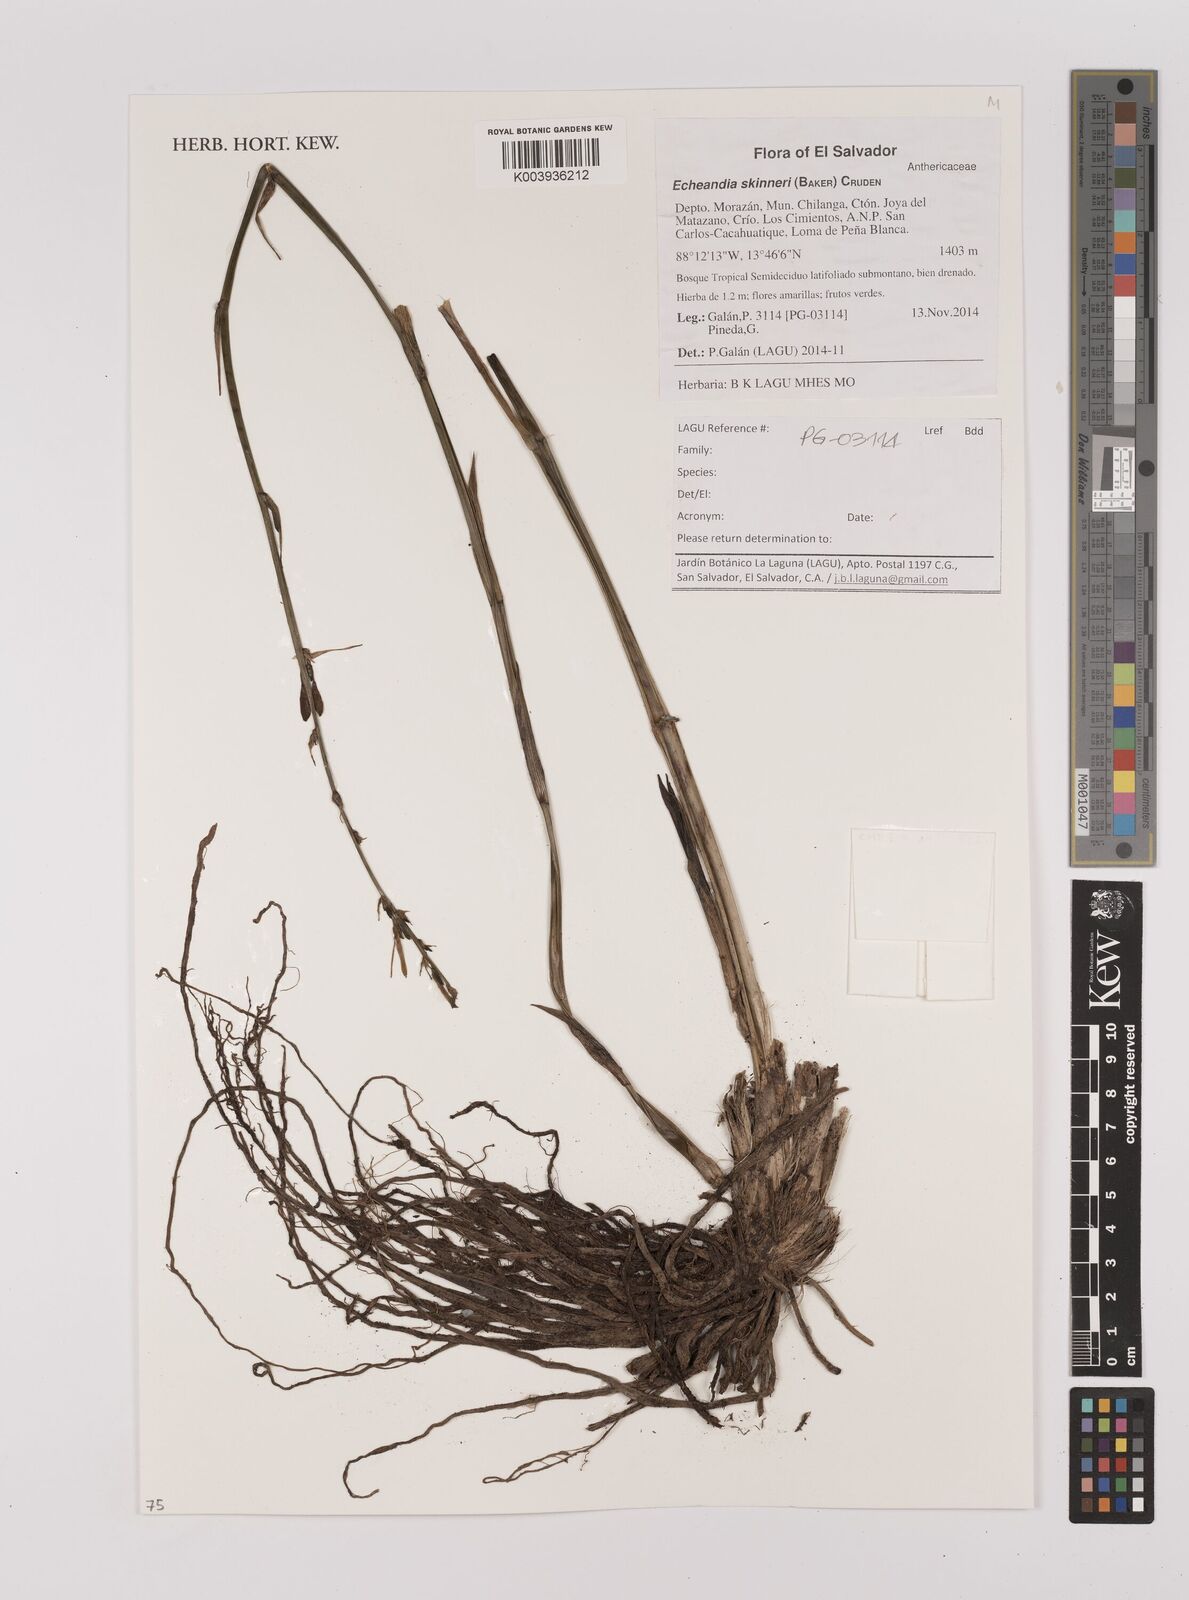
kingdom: Plantae
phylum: Tracheophyta
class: Liliopsida
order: Asparagales
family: Asparagaceae
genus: Echeandia
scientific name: Echeandia skinneri
